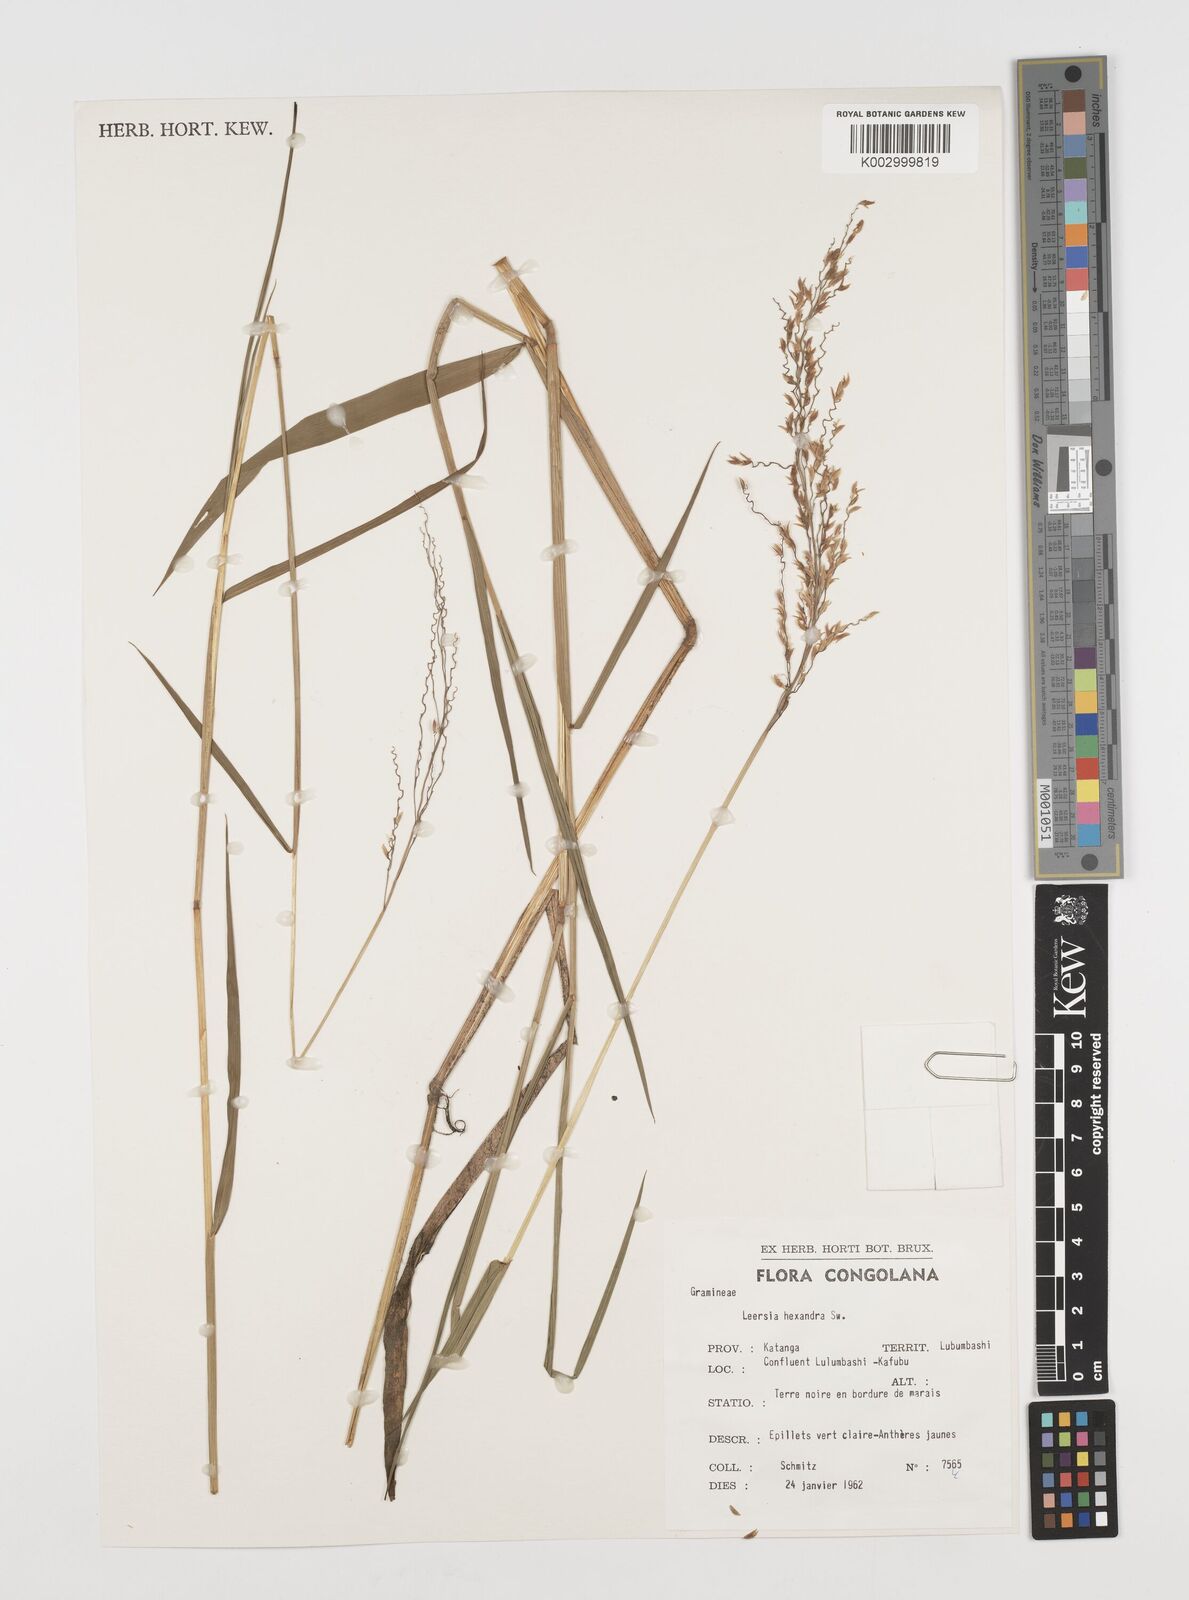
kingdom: Plantae
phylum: Tracheophyta
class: Liliopsida
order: Poales
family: Poaceae
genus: Leersia
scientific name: Leersia hexandra
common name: Southern cut grass
